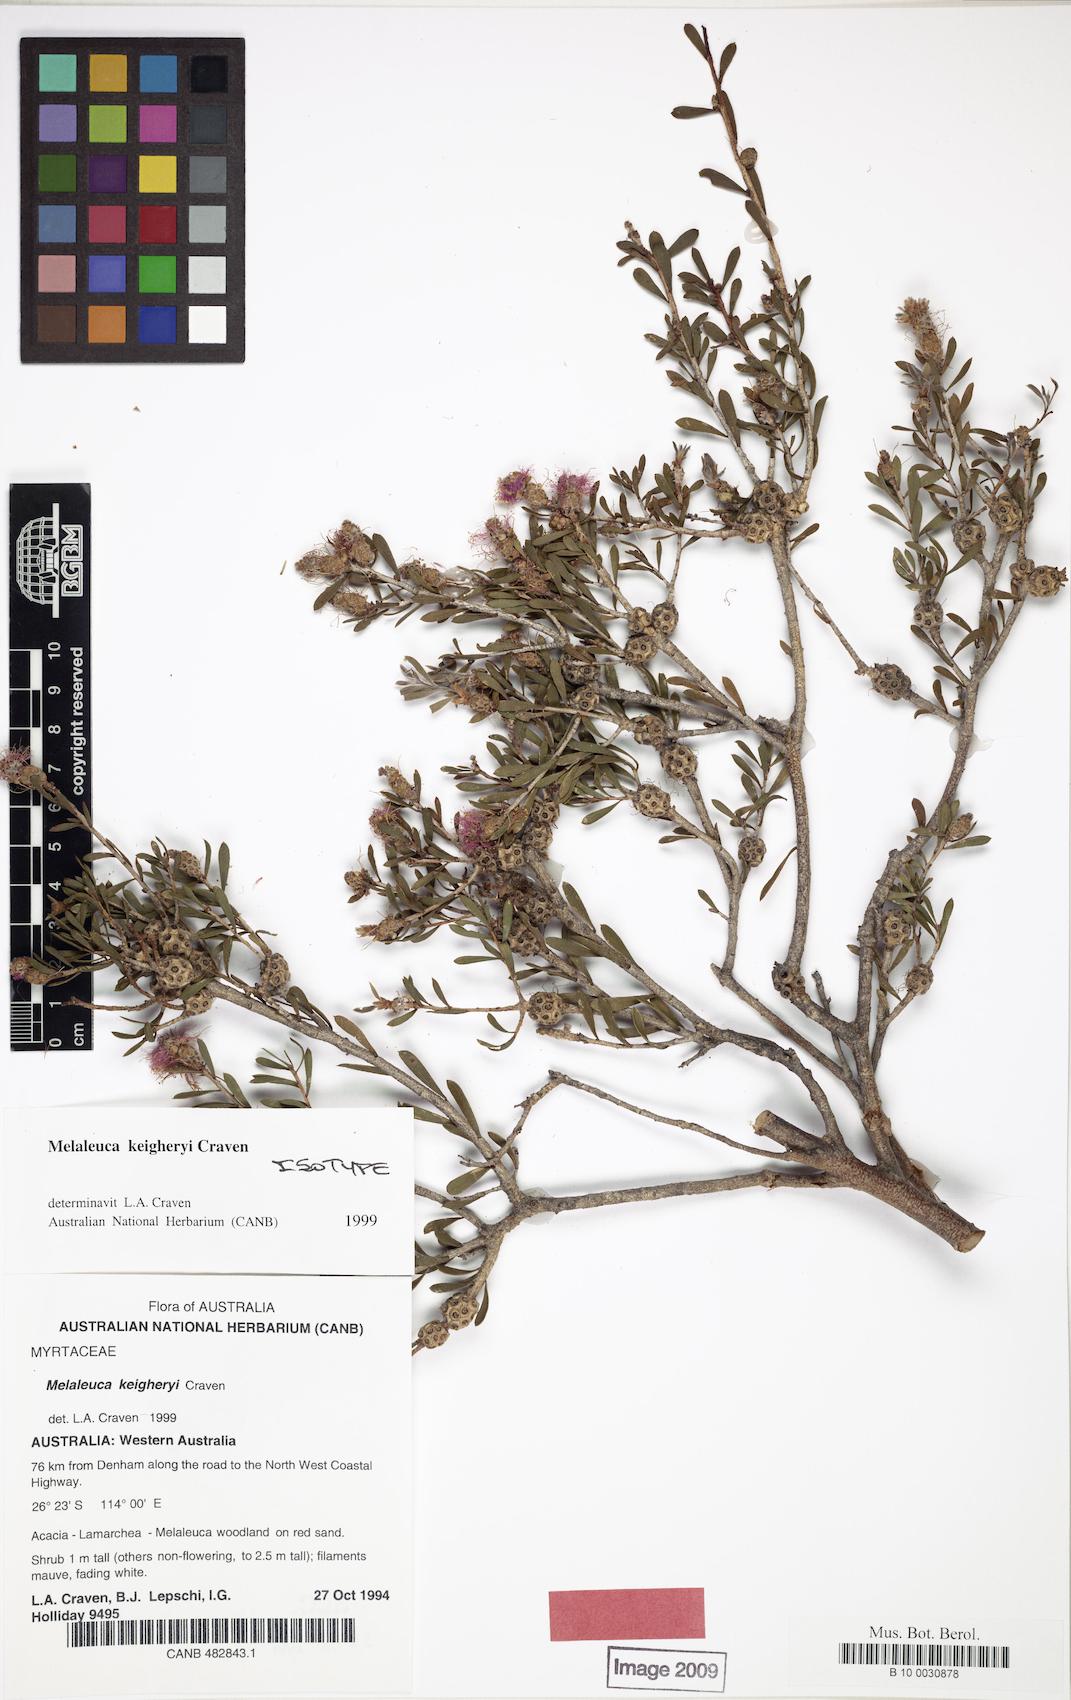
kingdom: Plantae
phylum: Tracheophyta
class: Magnoliopsida
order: Myrtales
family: Myrtaceae
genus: Melaleuca
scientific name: Melaleuca keigheryi
